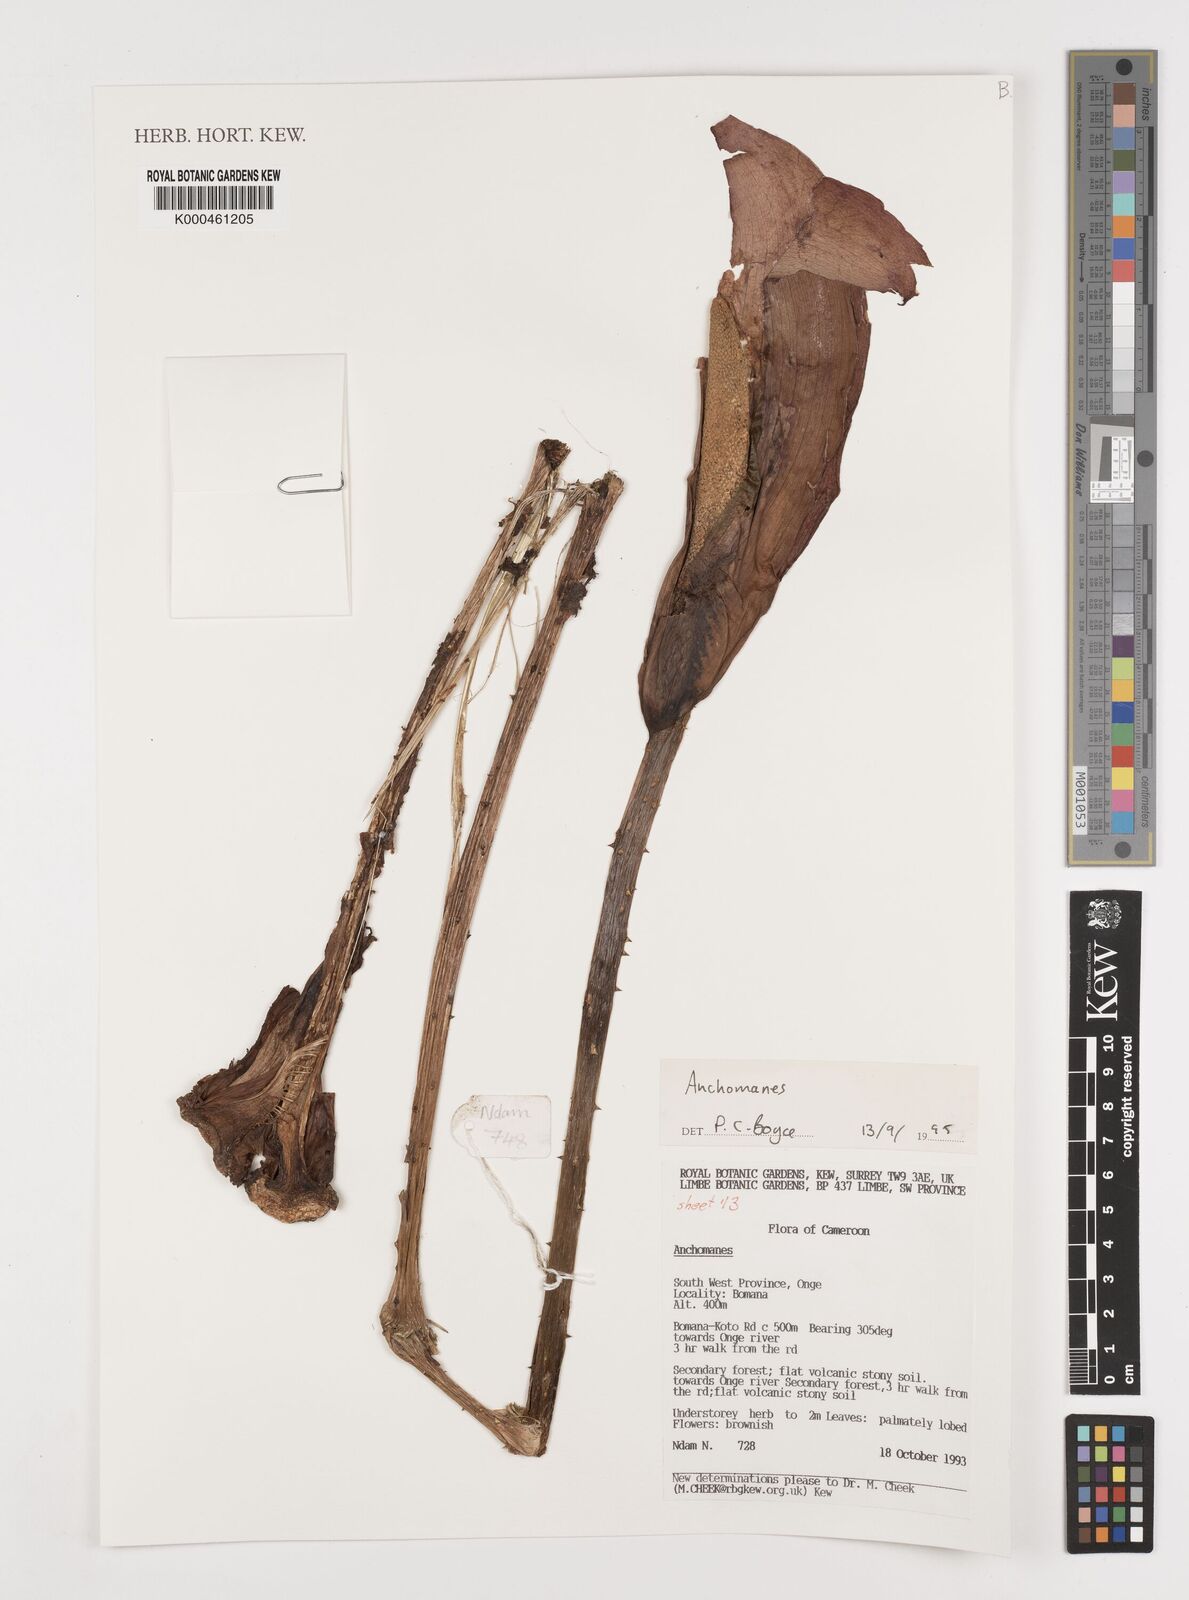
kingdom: Plantae
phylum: Tracheophyta
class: Liliopsida
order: Alismatales
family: Araceae
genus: Anchomanes
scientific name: Anchomanes
